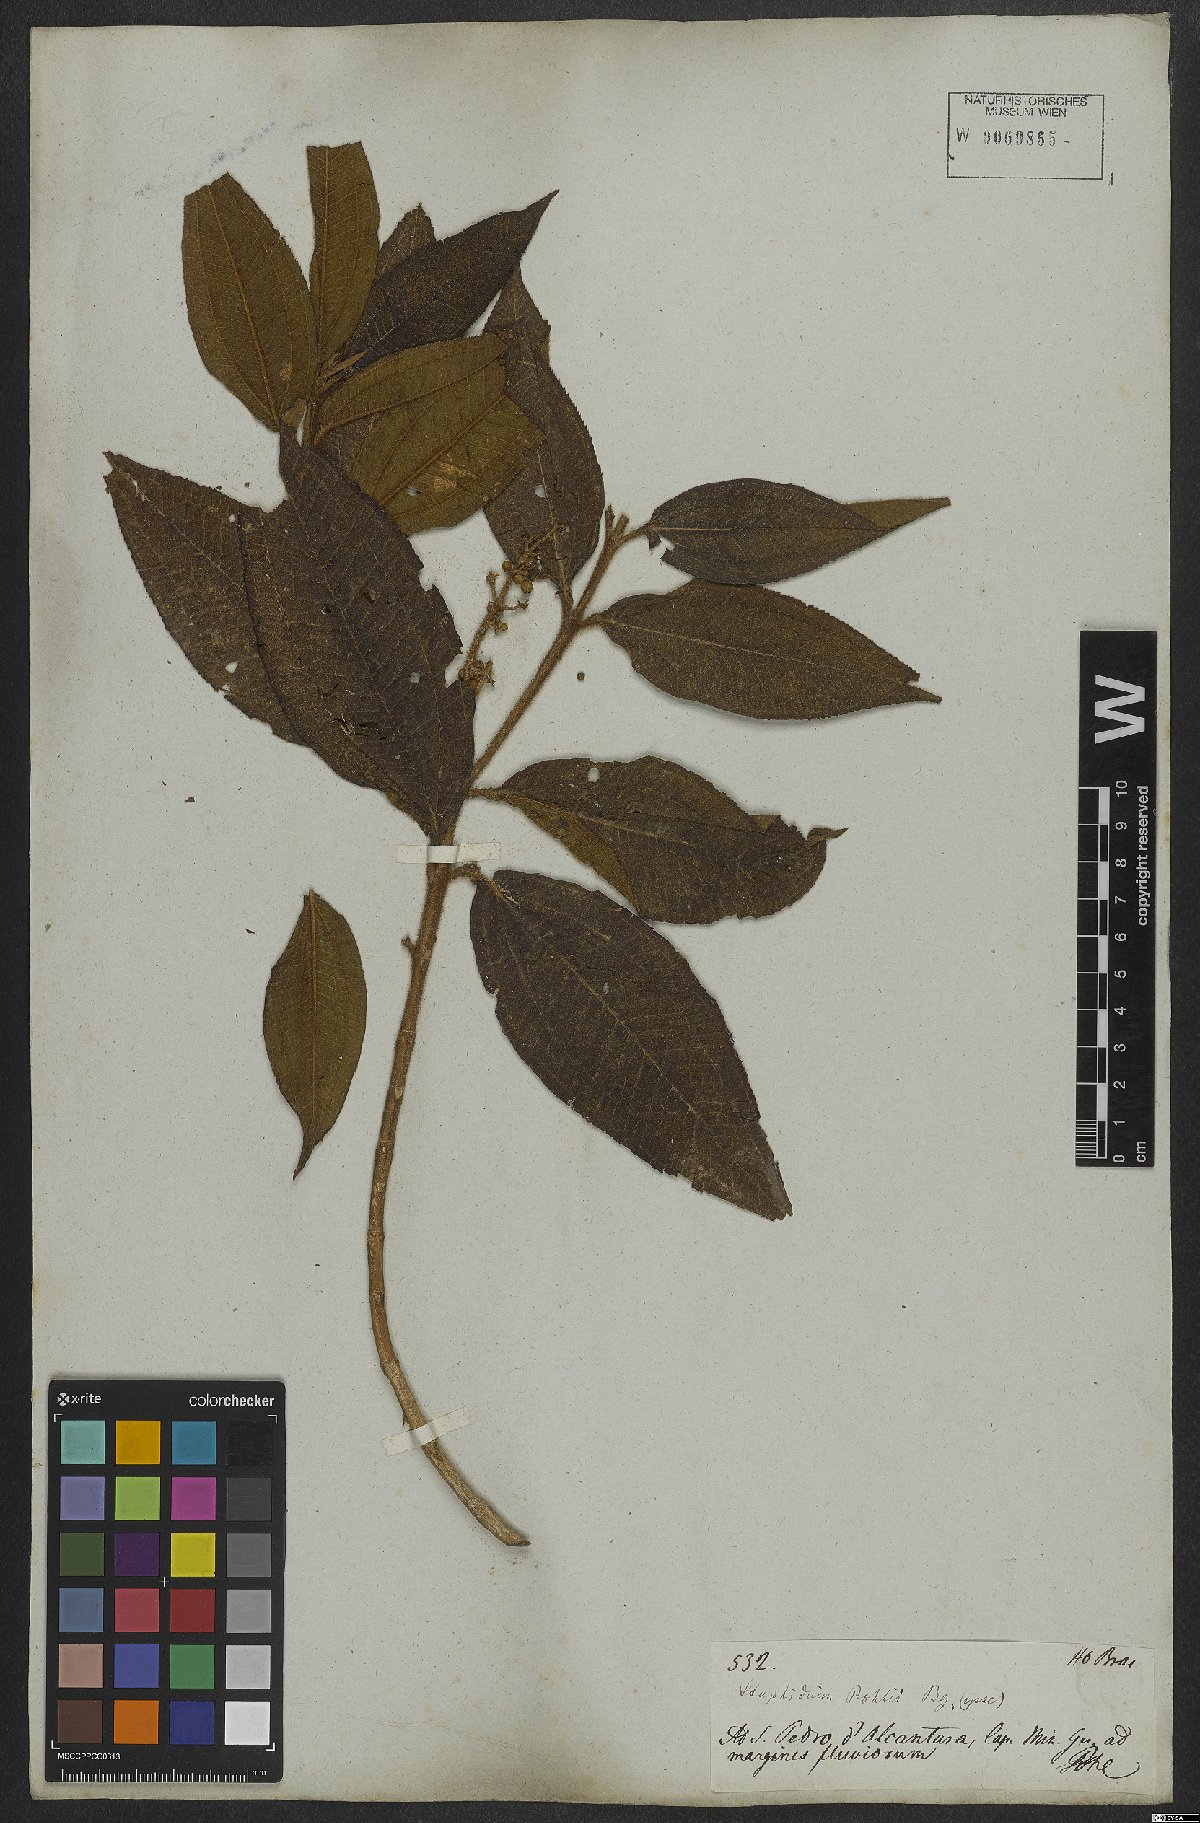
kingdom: Plantae
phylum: Tracheophyta
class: Magnoliopsida
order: Myrtales
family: Melastomataceae
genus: Miconia
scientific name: Miconia ibaguensis
